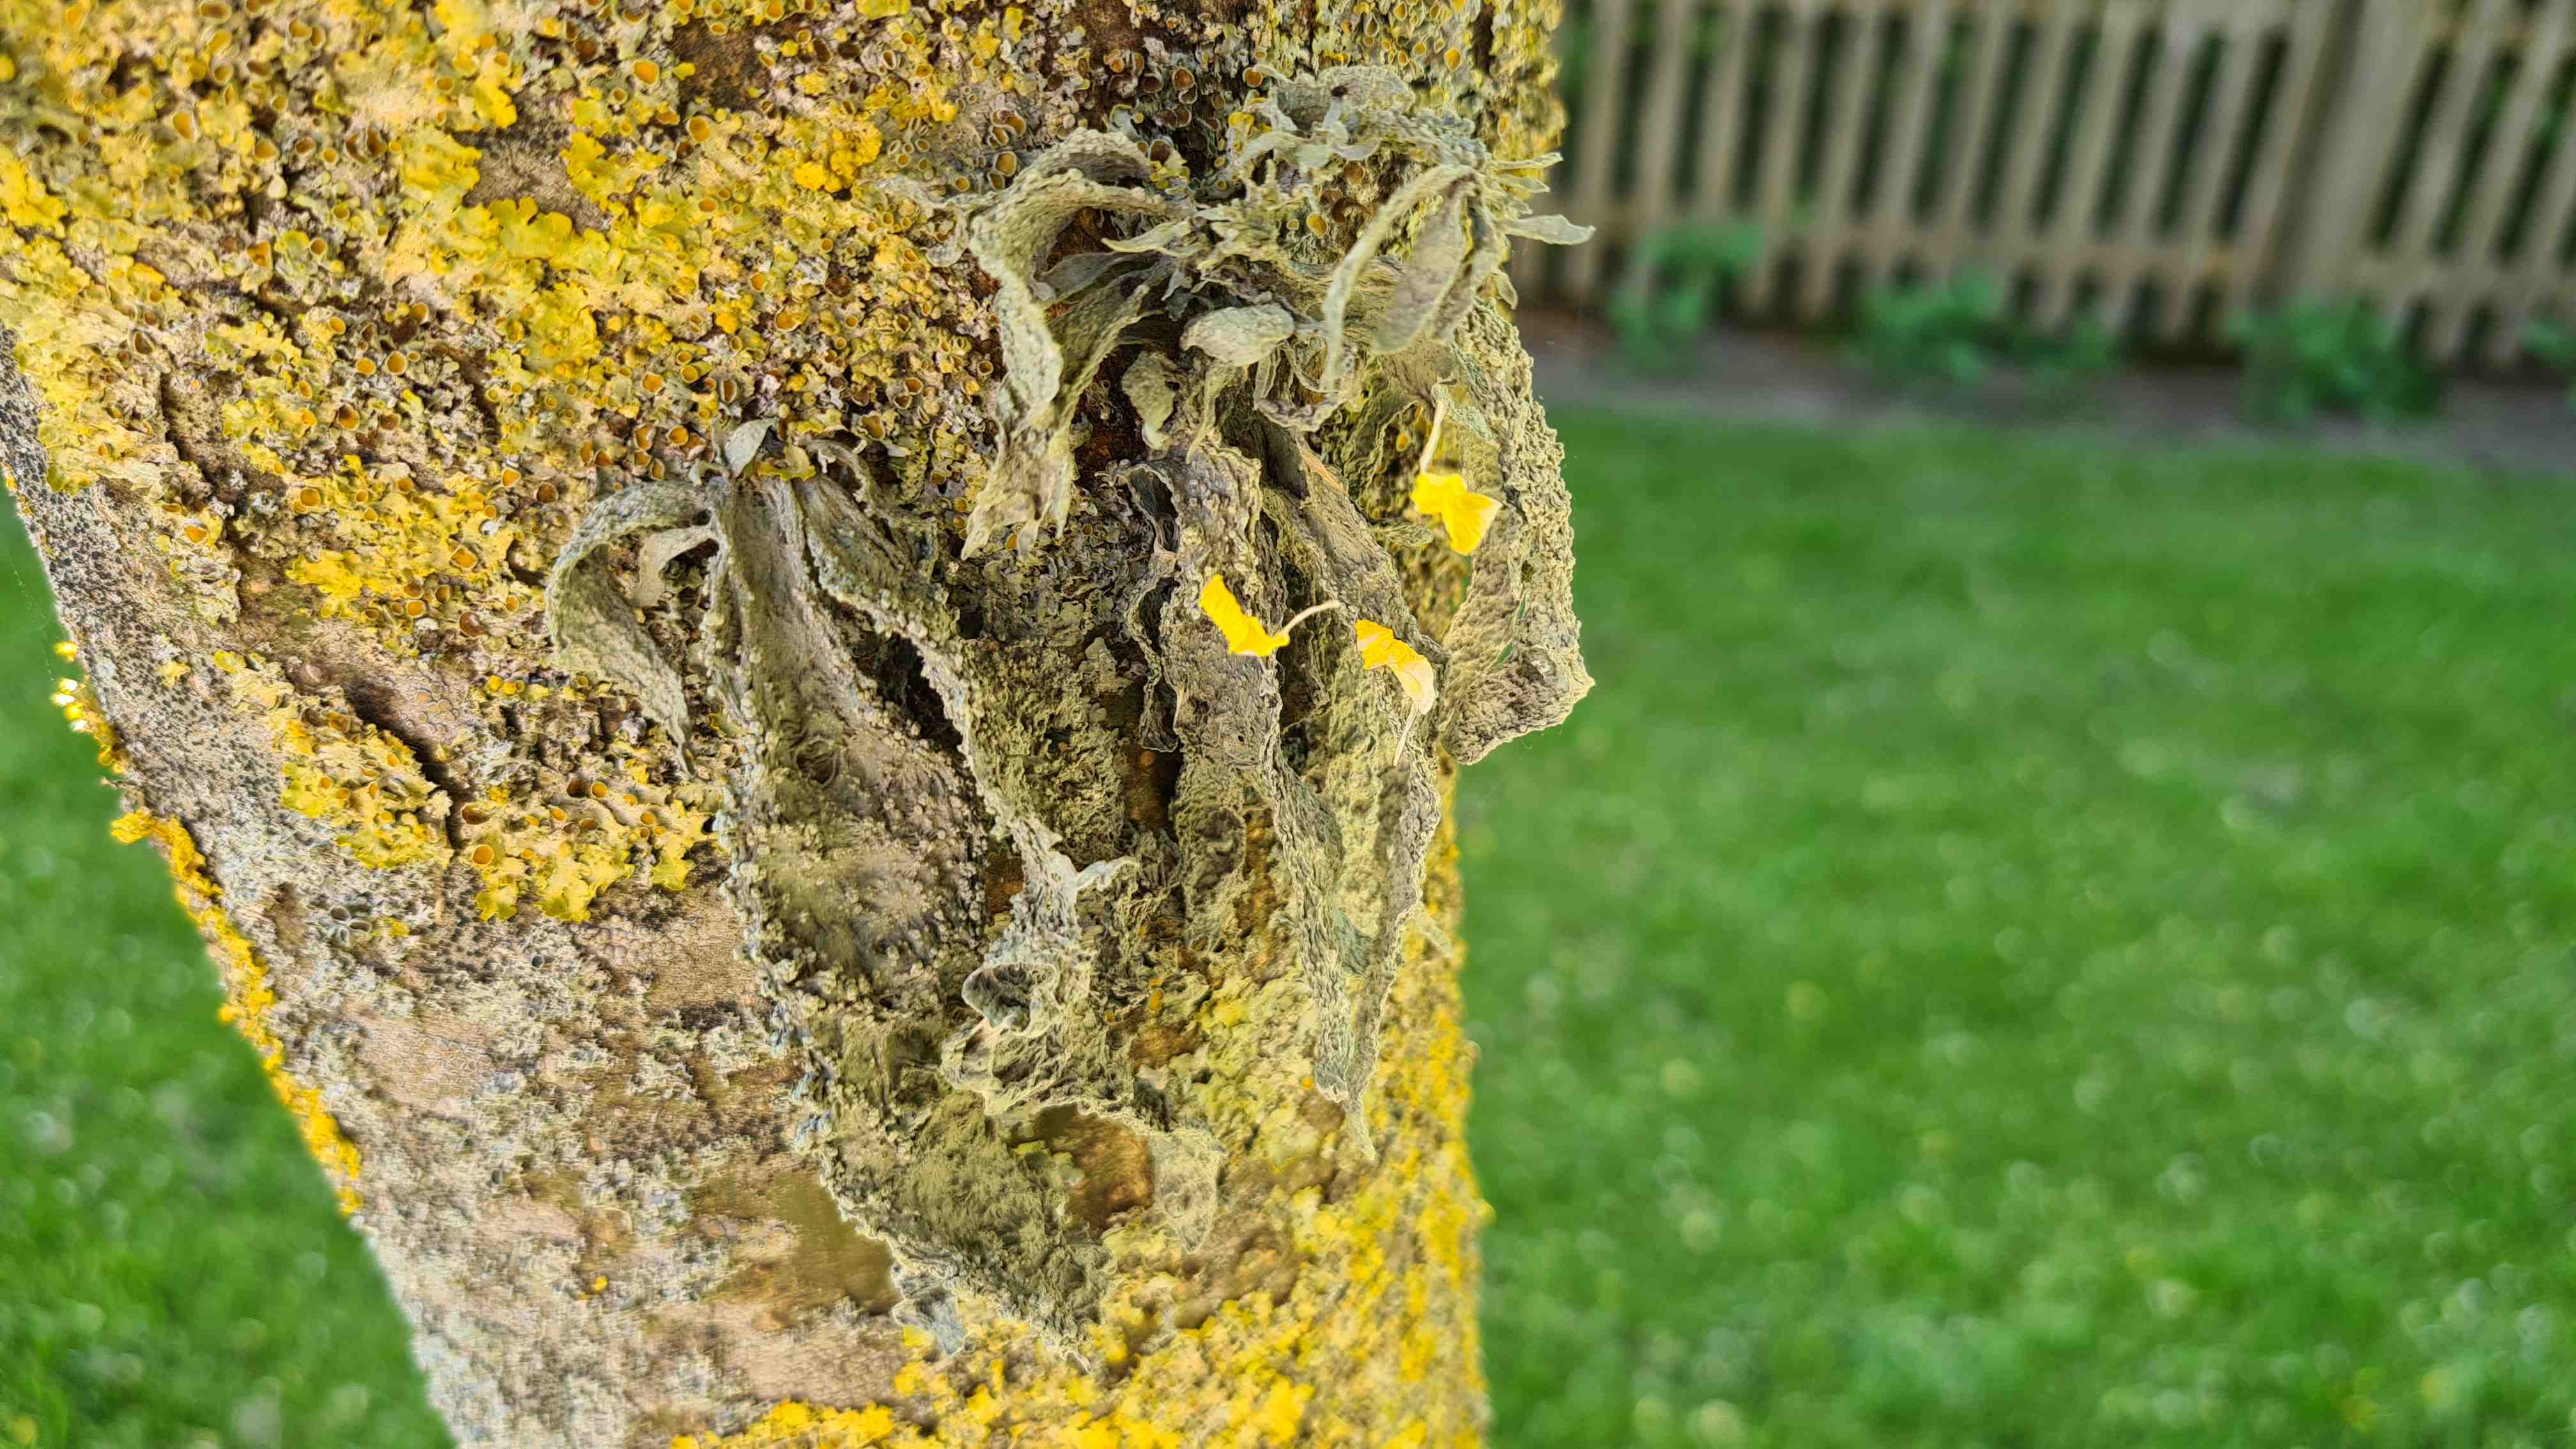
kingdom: Fungi
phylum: Ascomycota
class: Lecanoromycetes
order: Lecanorales
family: Ramalinaceae
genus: Ramalina
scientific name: Ramalina fraxinea
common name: stor grenlav
